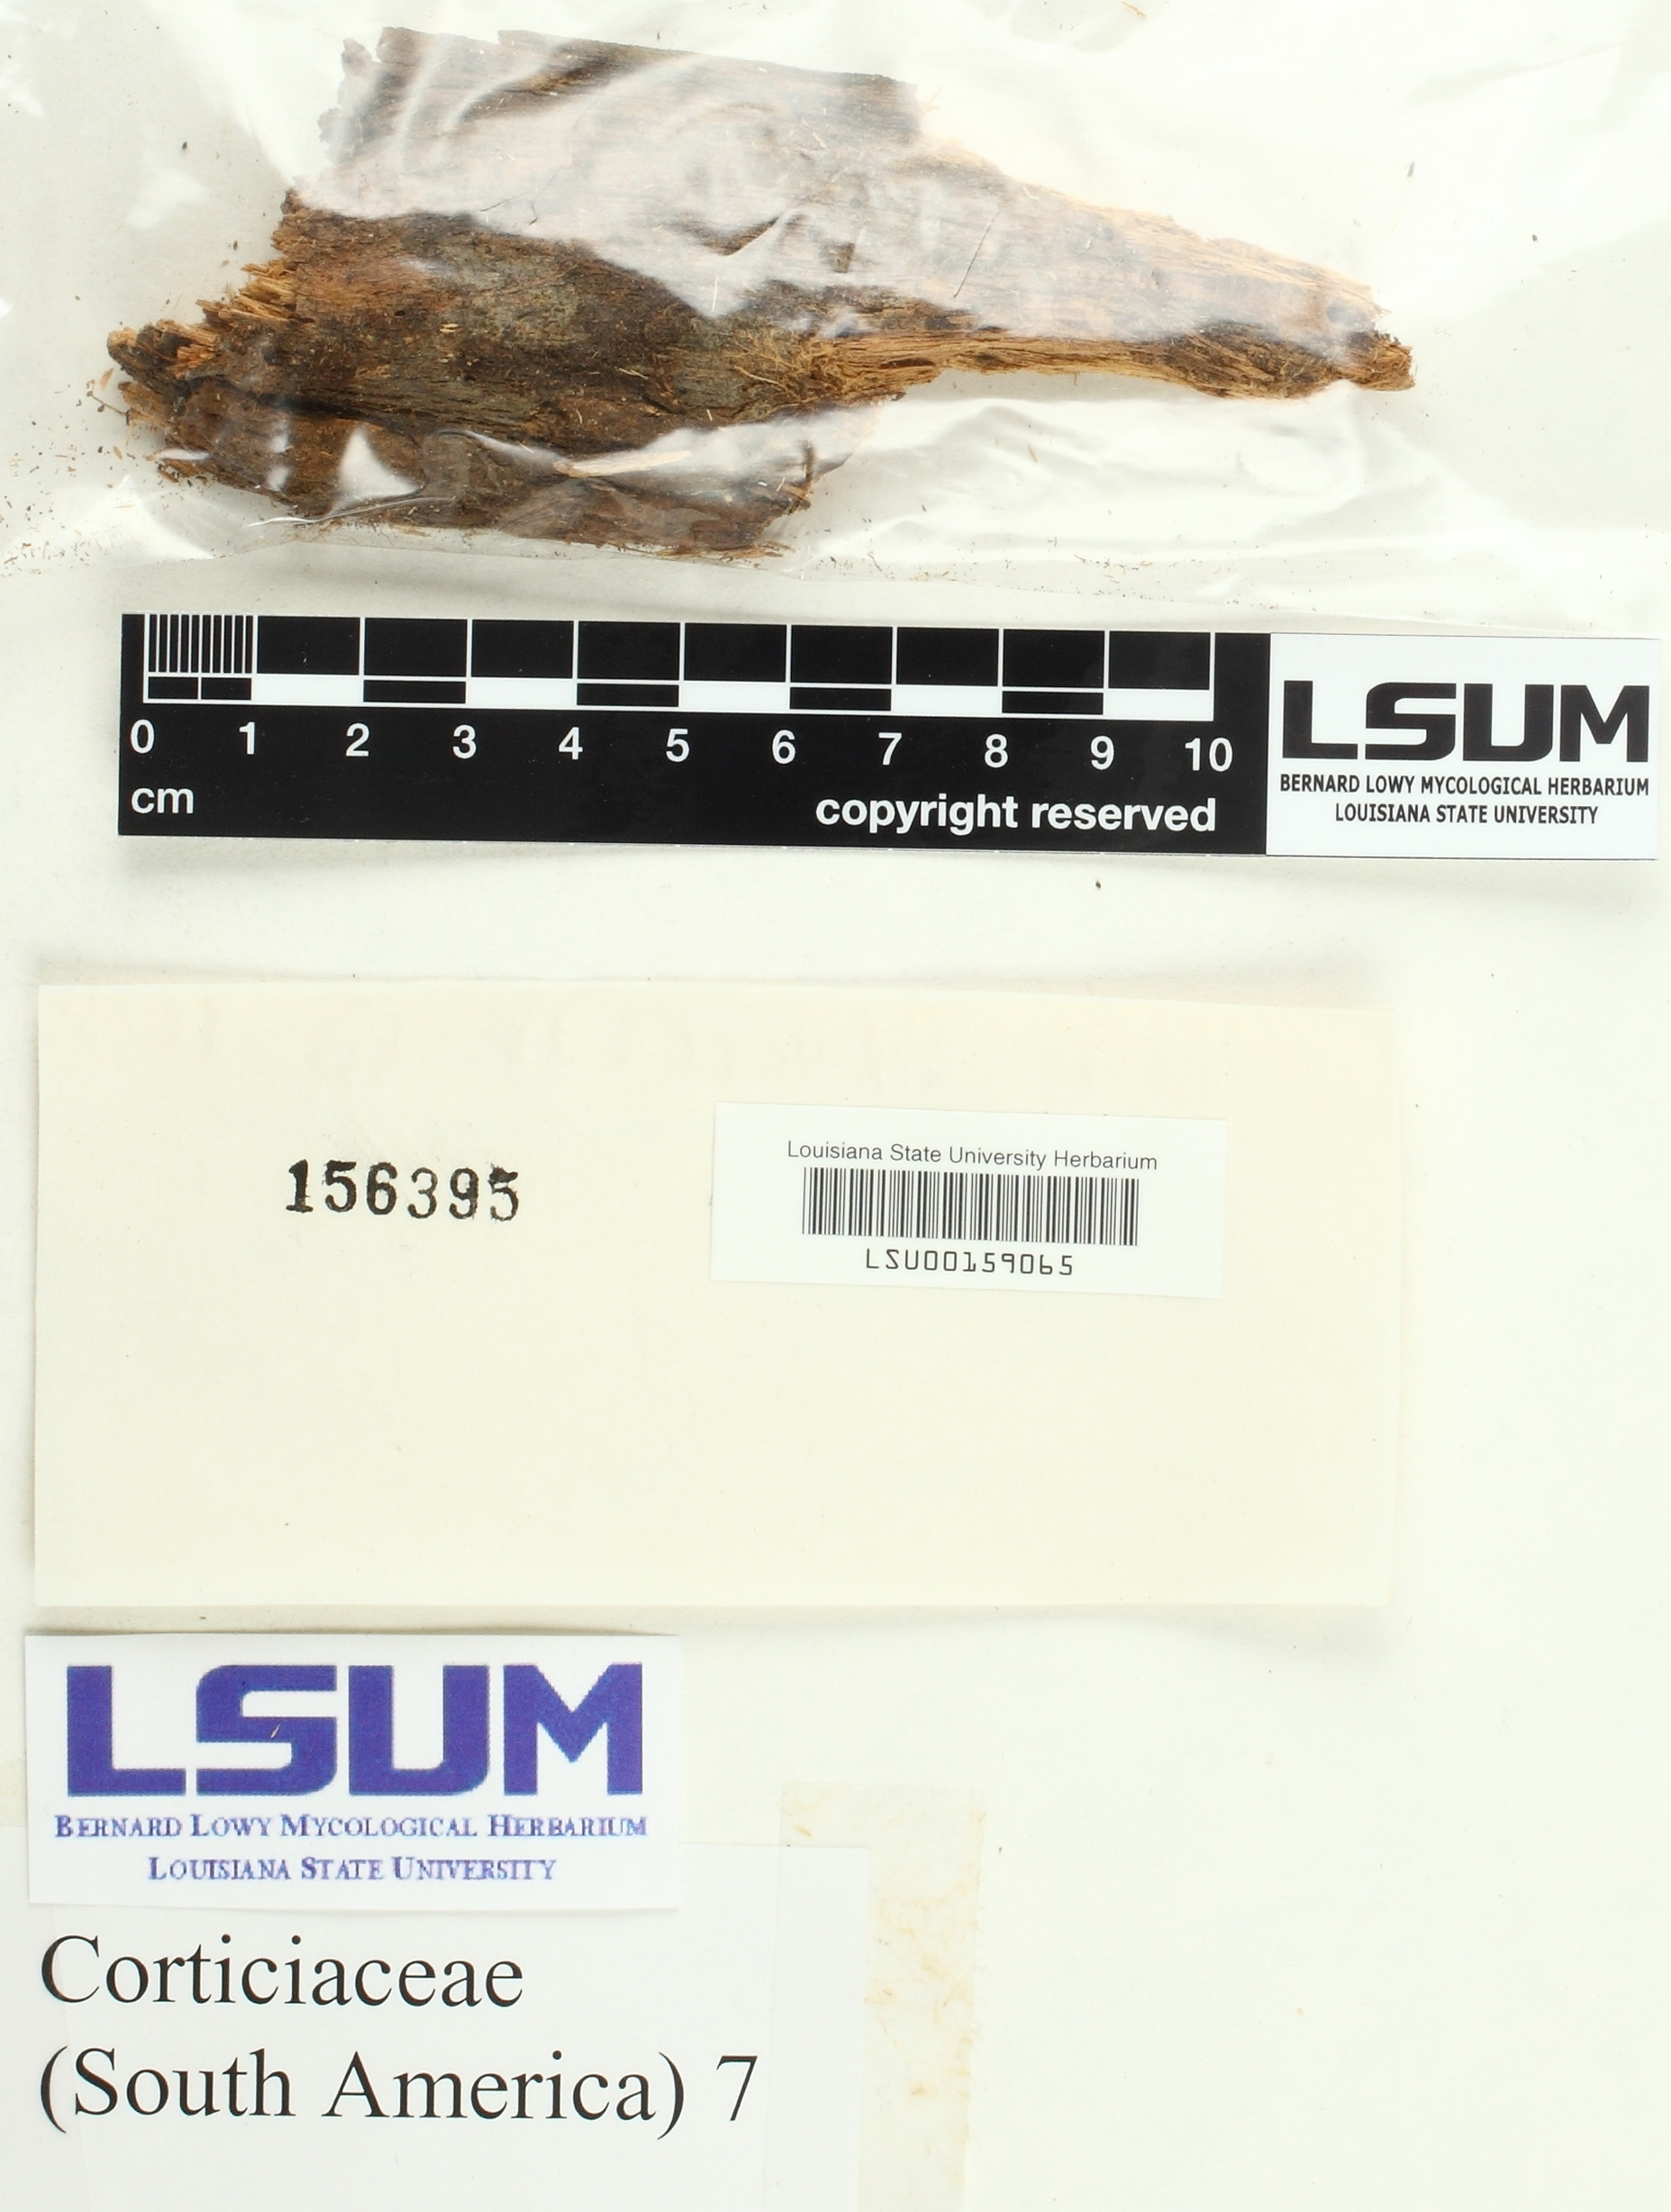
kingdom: Fungi
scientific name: Fungi
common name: Fungi
